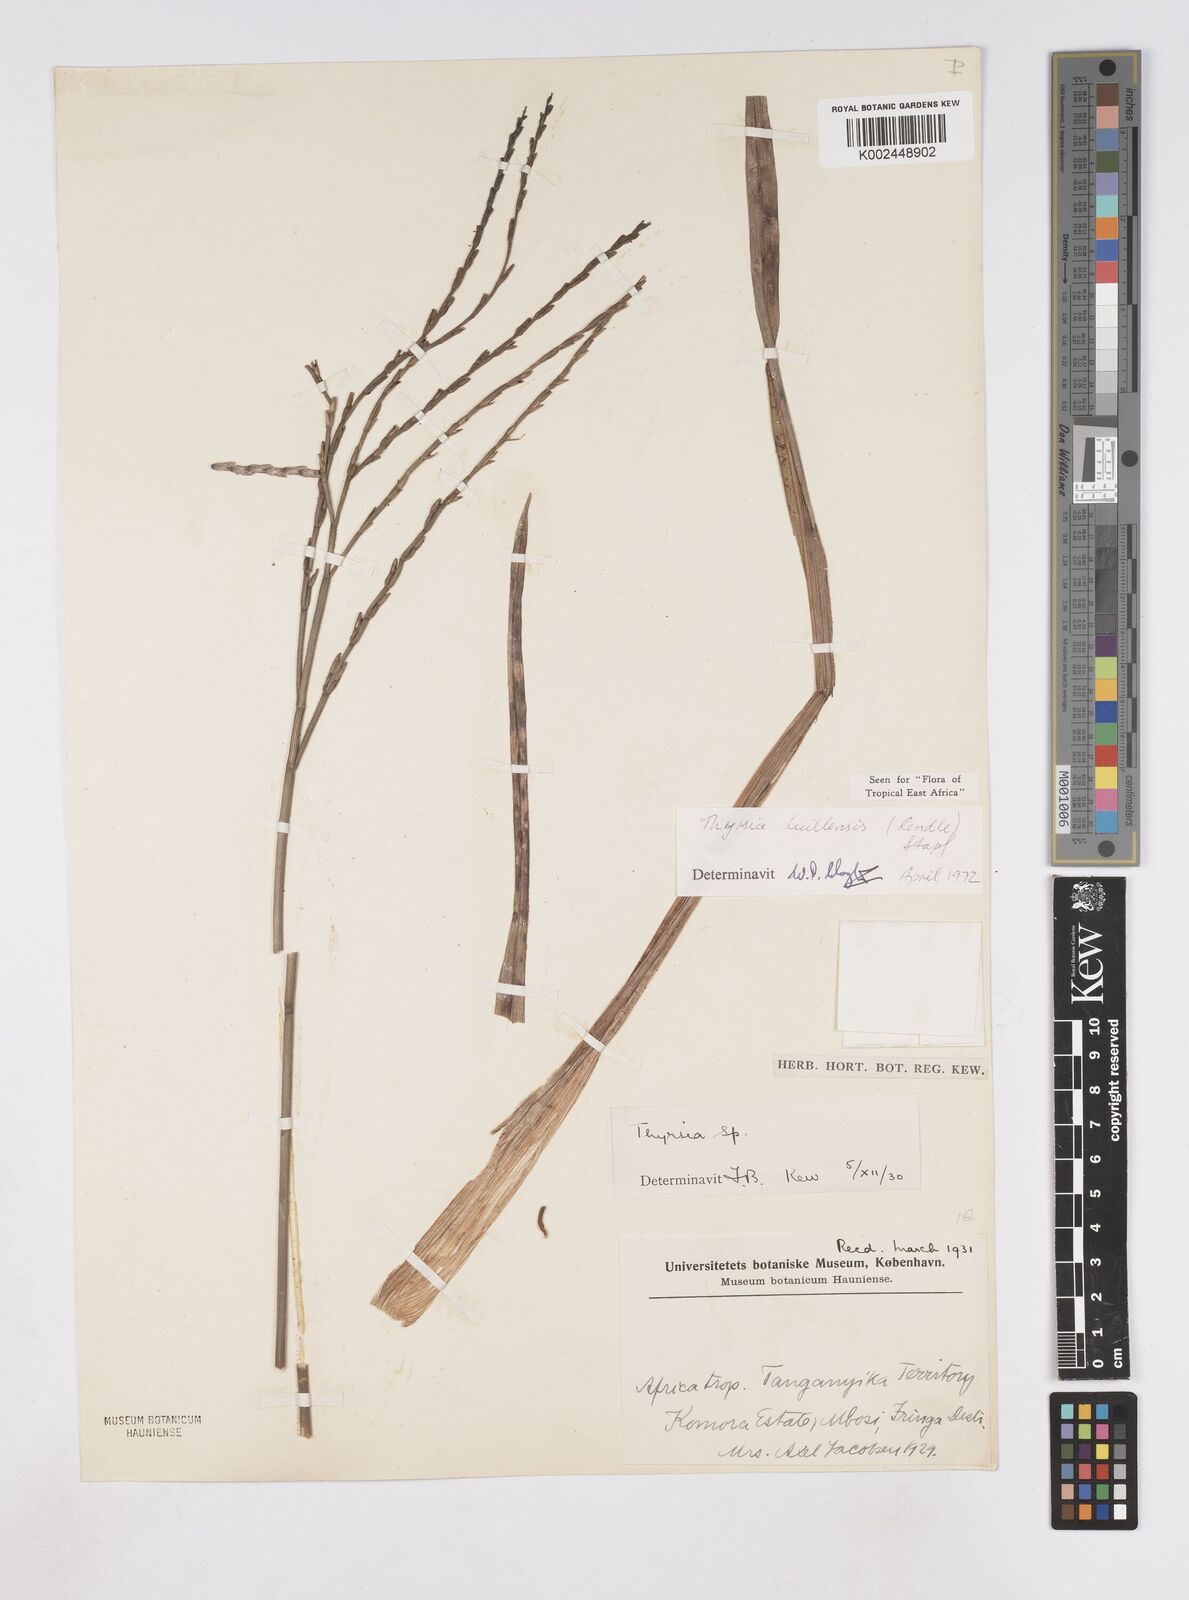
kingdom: Plantae
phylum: Tracheophyta
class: Liliopsida
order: Poales
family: Poaceae
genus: Thyrsia
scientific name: Thyrsia huillensis
